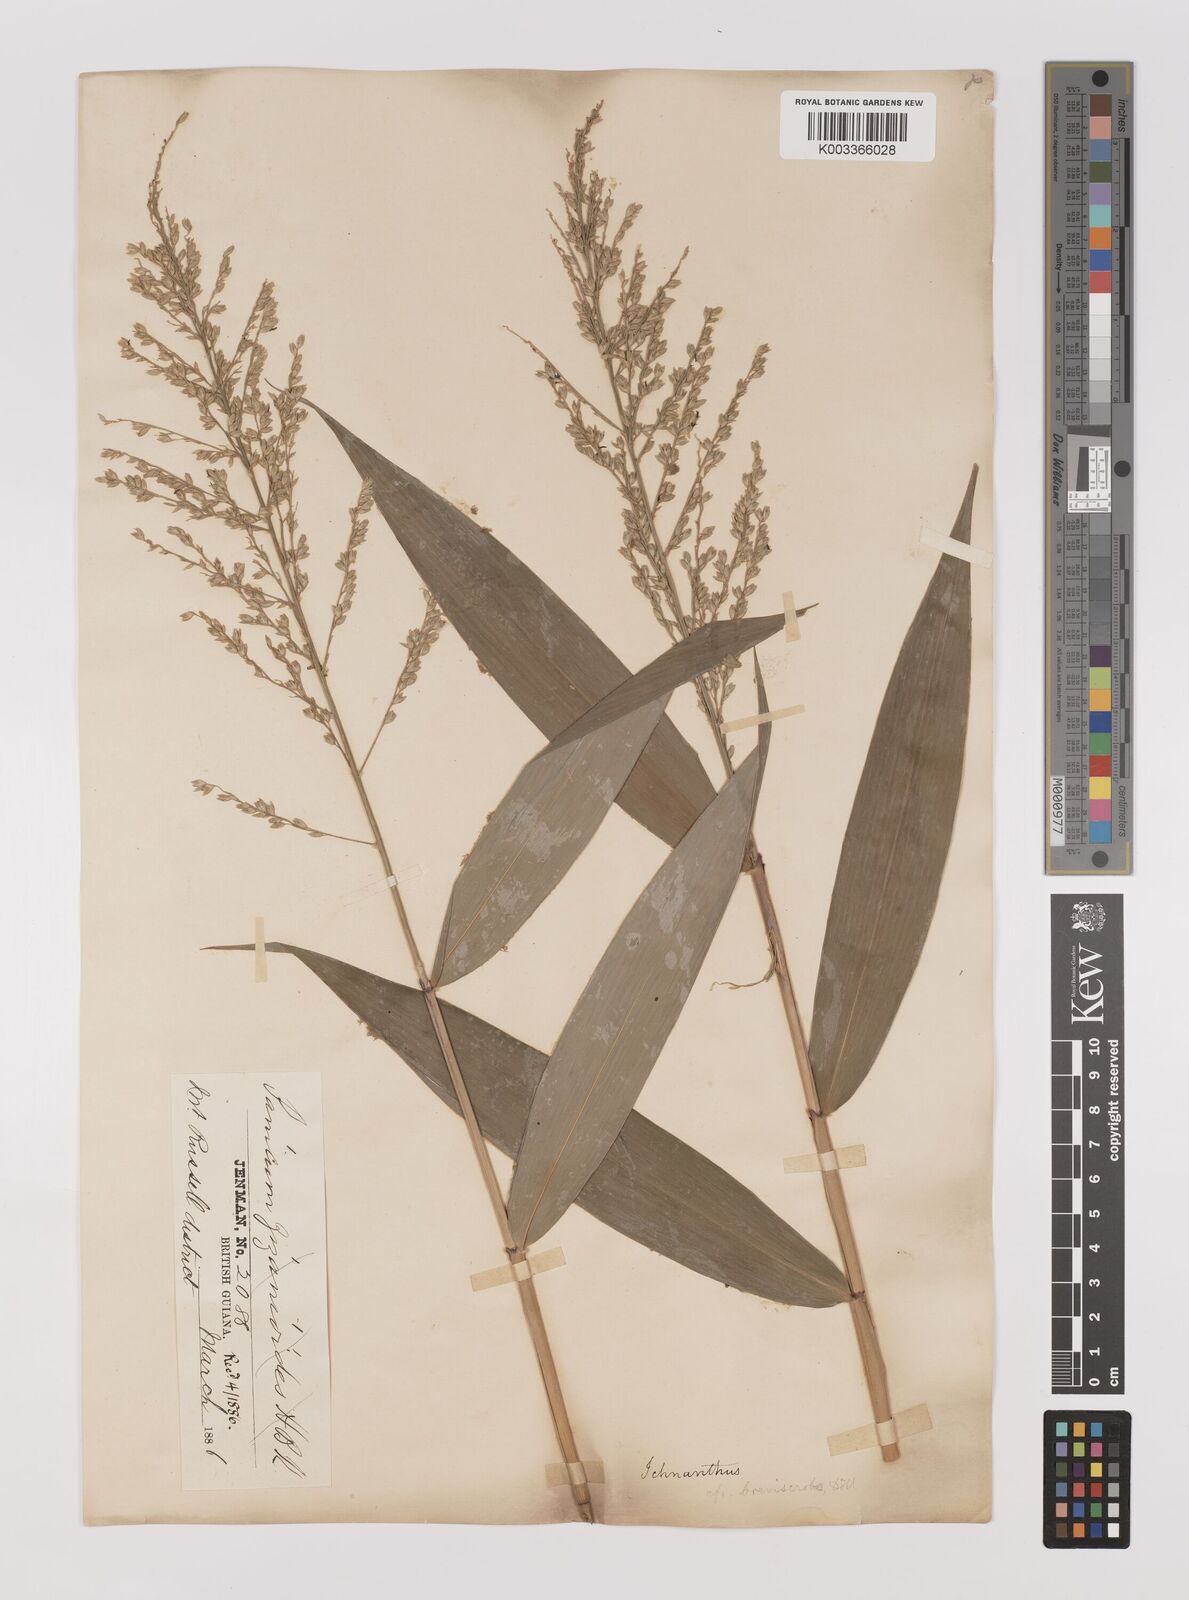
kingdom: Plantae
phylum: Tracheophyta
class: Liliopsida
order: Poales
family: Poaceae
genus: Ichnanthus
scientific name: Ichnanthus breviscrobs
